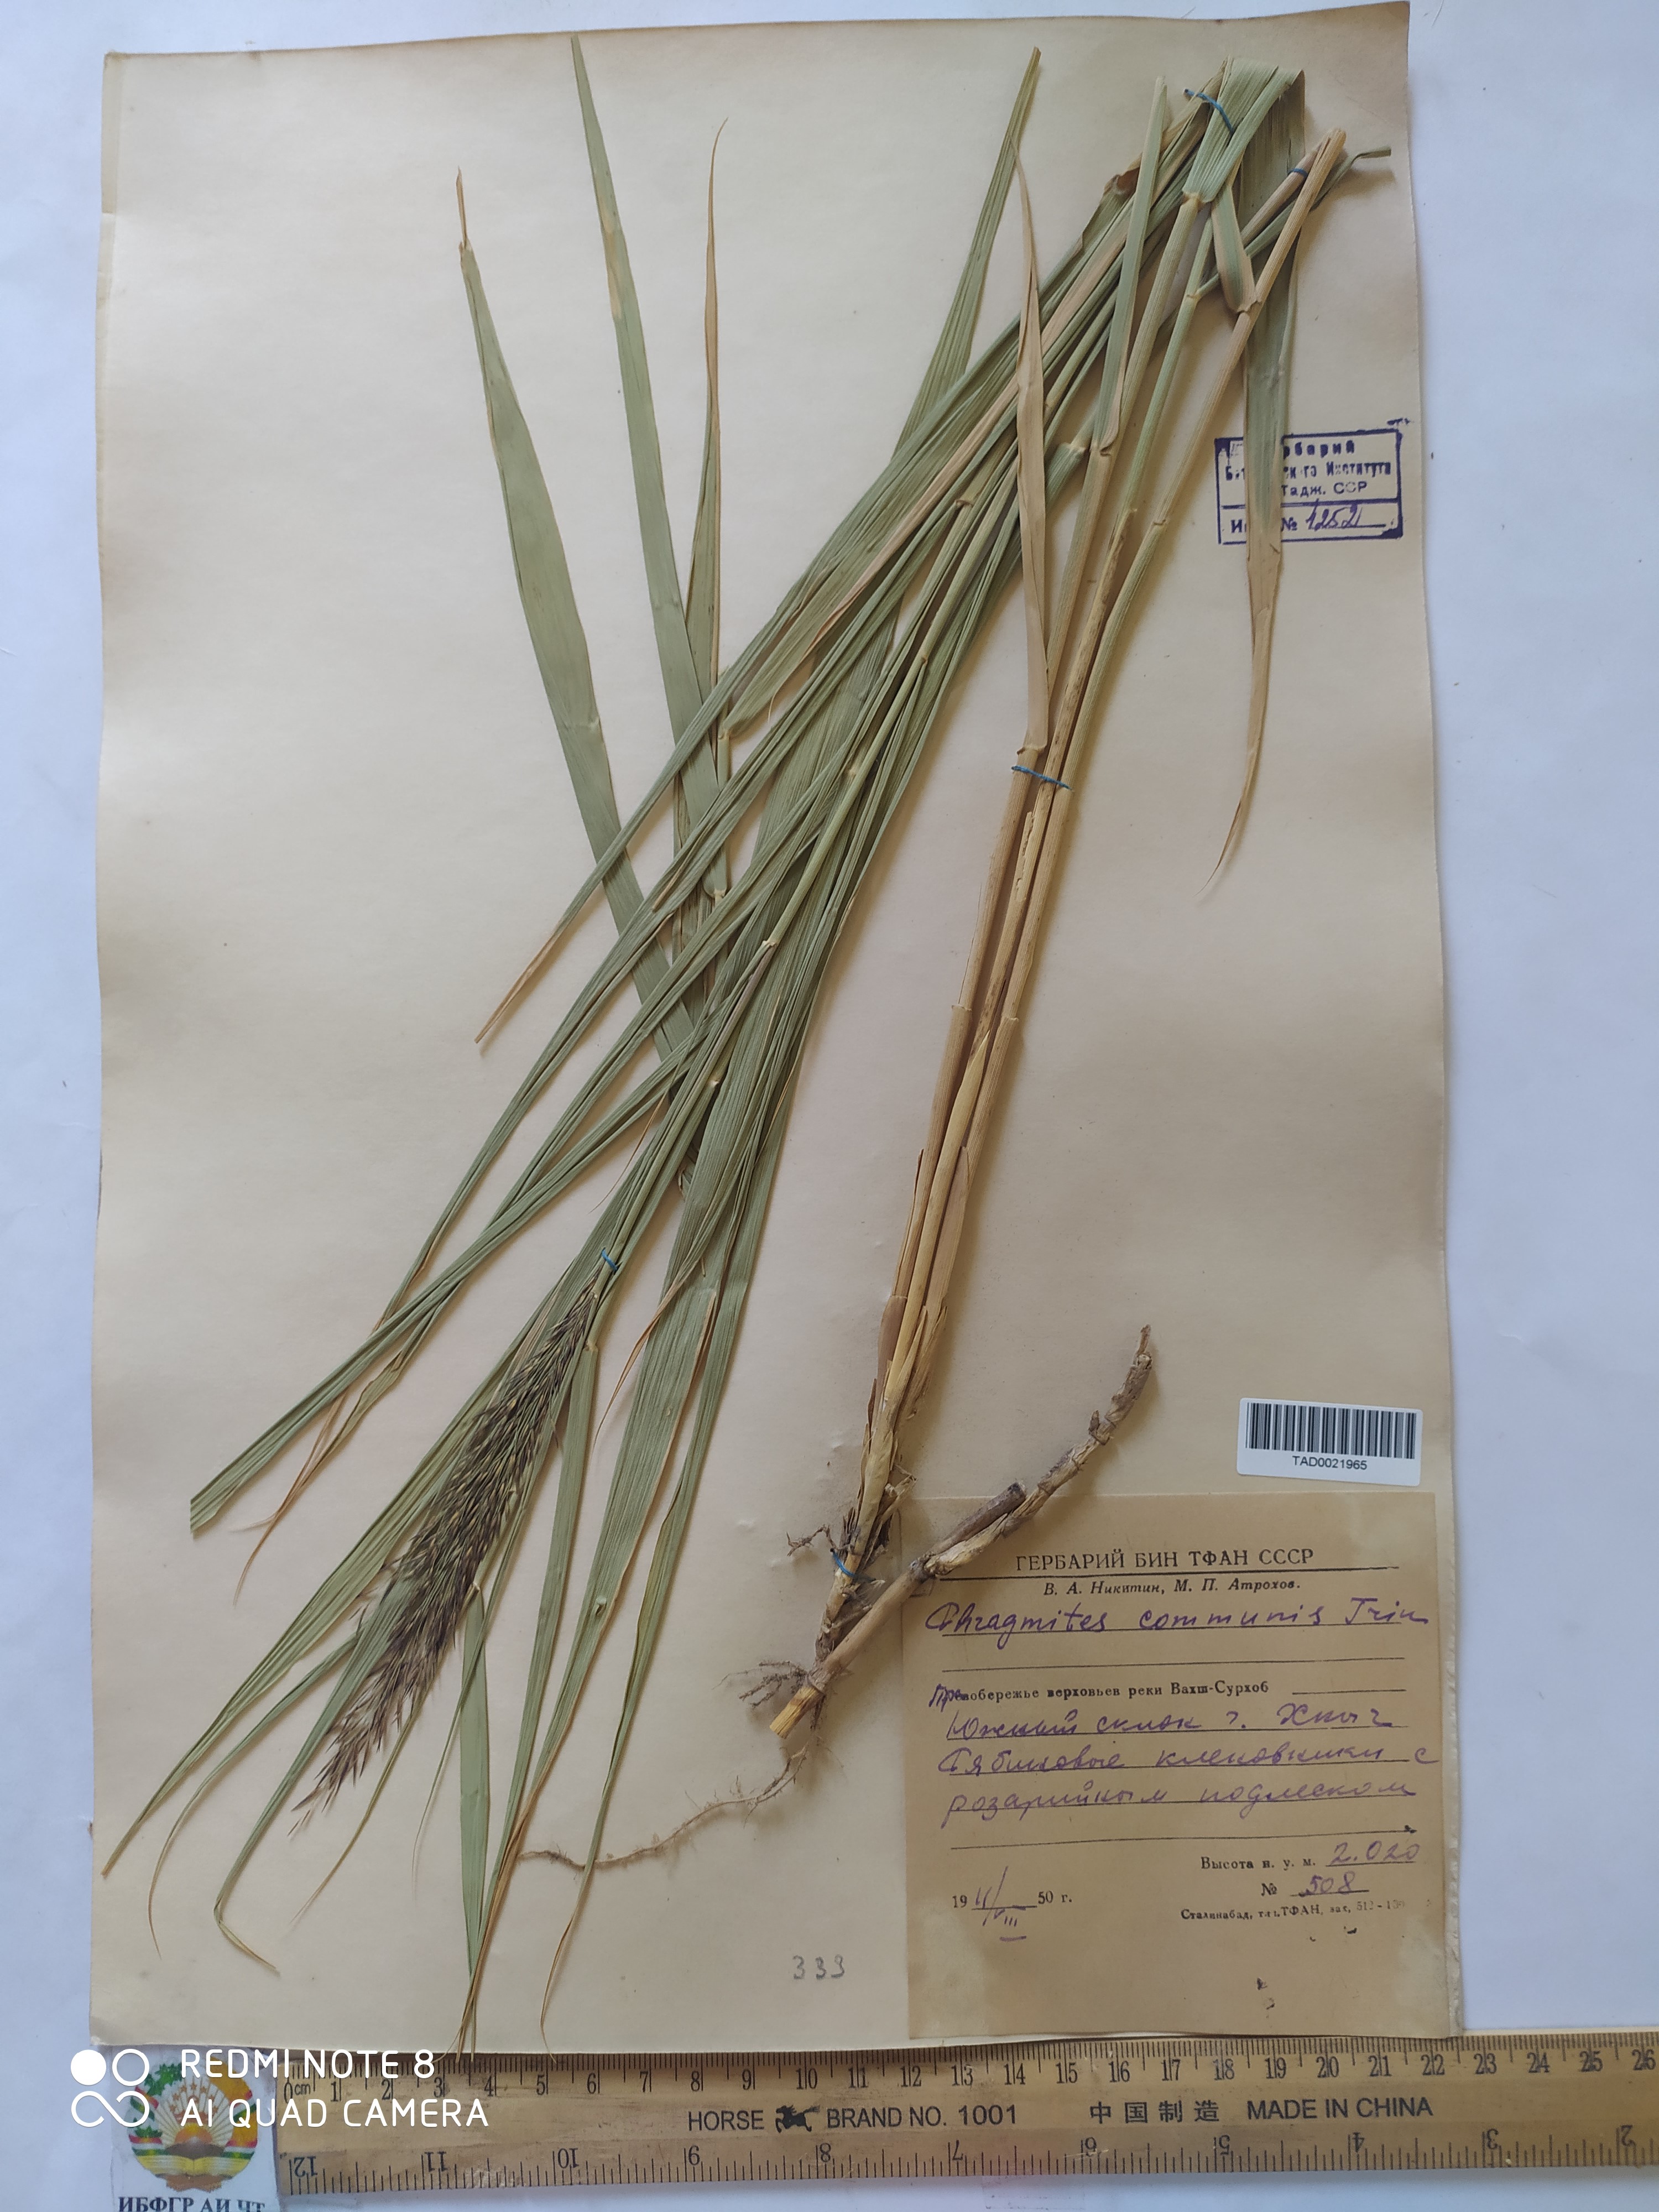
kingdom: Plantae
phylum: Tracheophyta
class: Liliopsida
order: Poales
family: Poaceae
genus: Phragmites
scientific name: Phragmites australis
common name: Common reed
